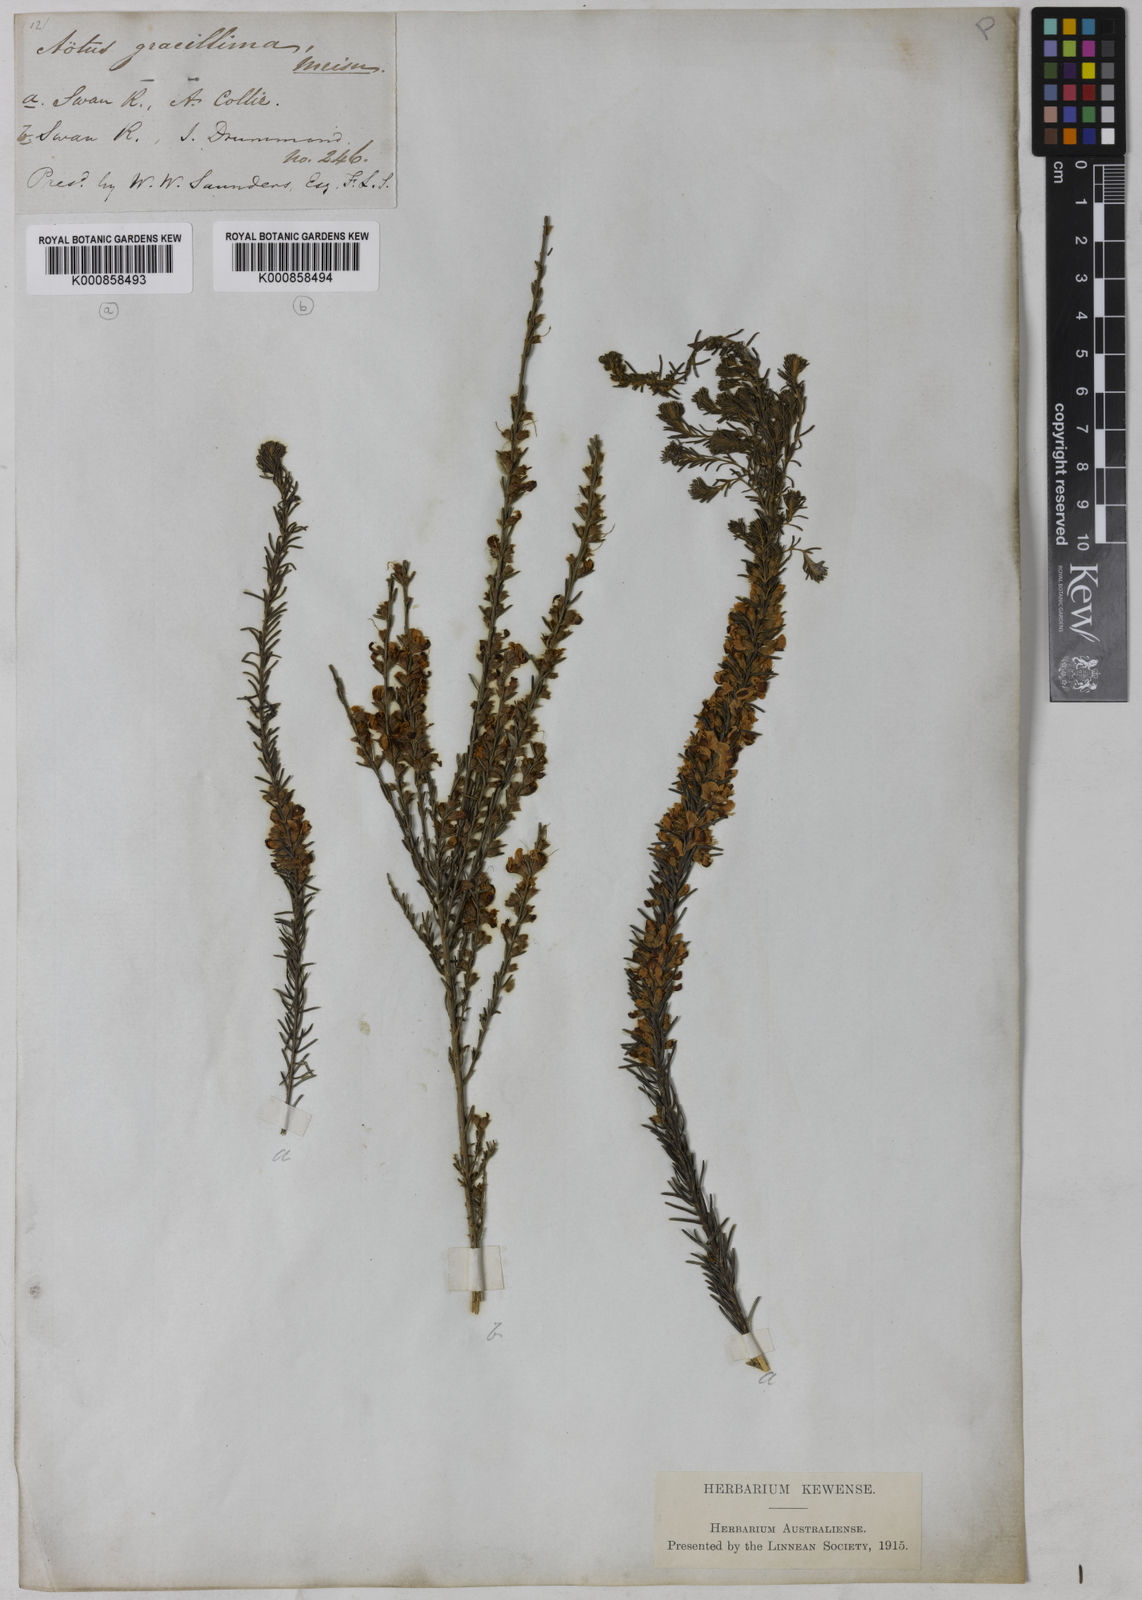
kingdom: Plantae
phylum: Tracheophyta
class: Magnoliopsida
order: Fabales
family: Fabaceae
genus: Aotus
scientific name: Aotus gracillima
